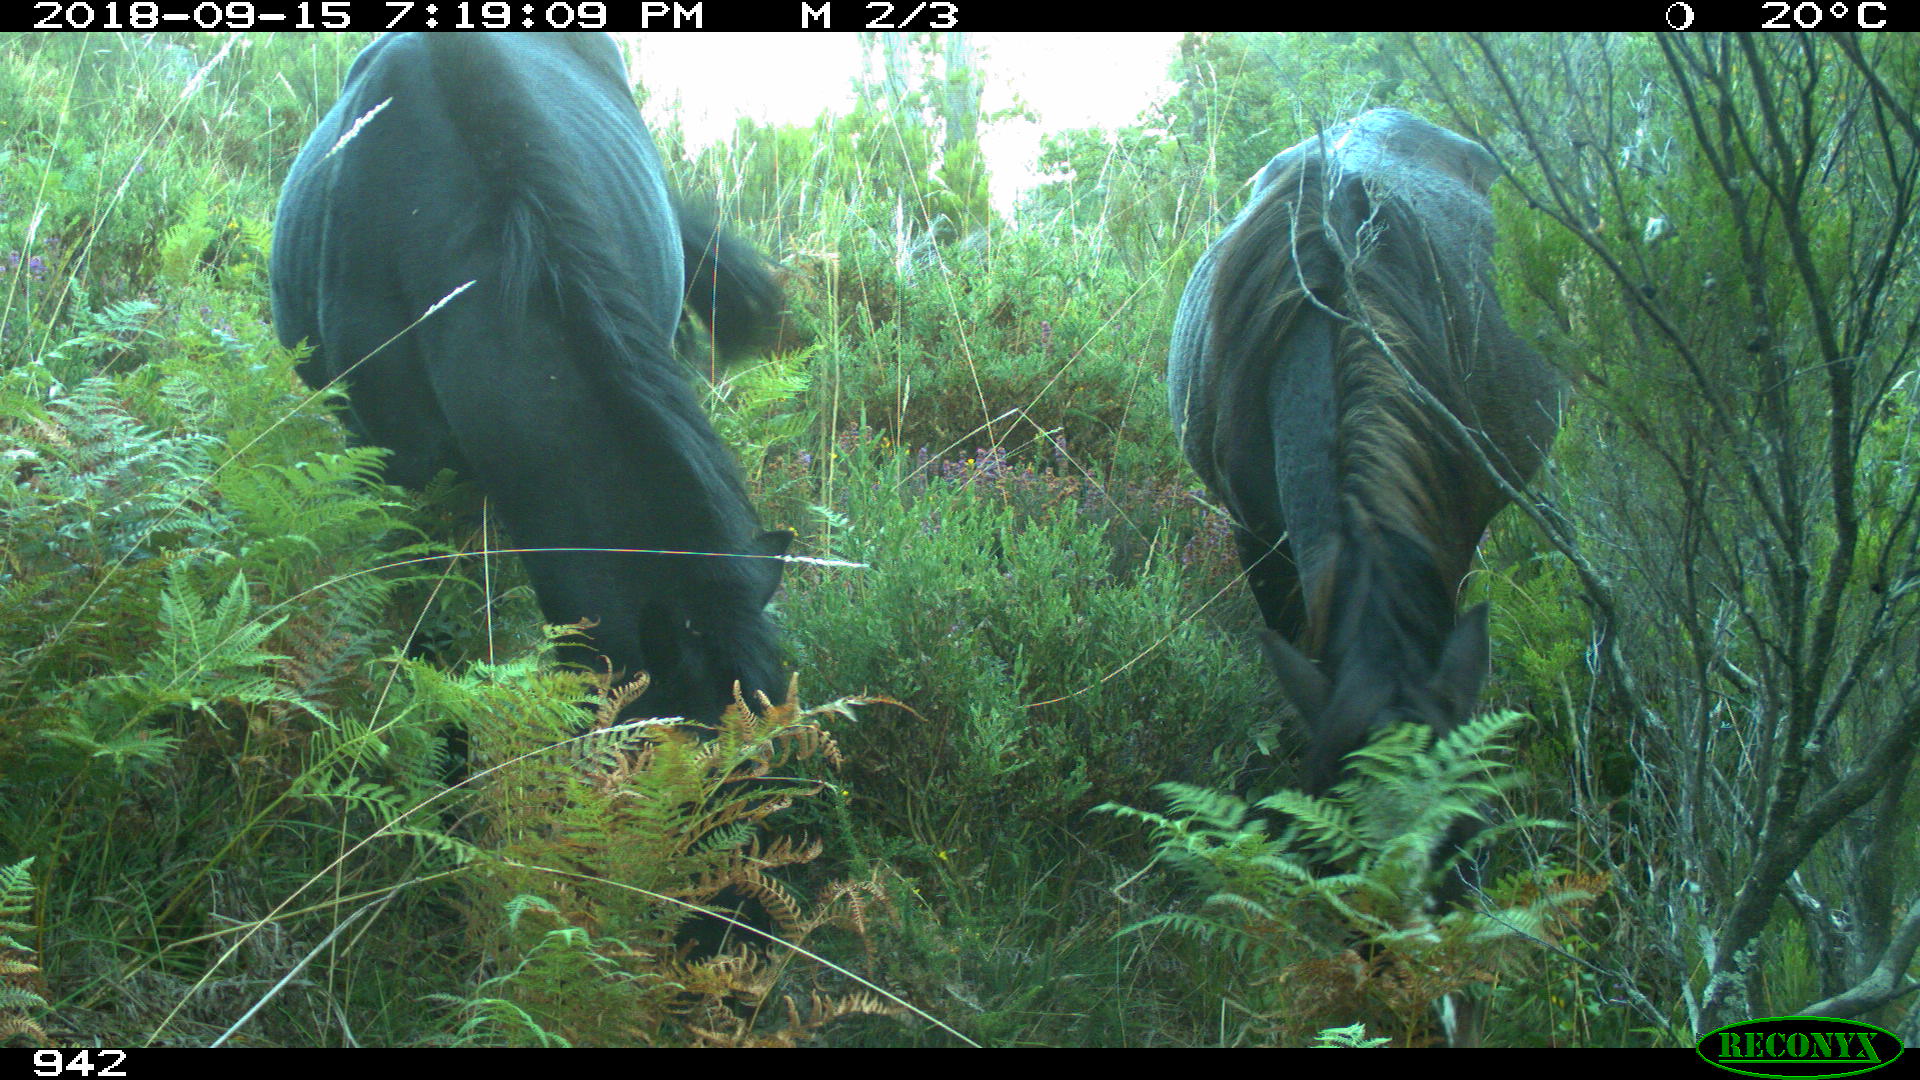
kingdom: Animalia
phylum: Chordata
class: Mammalia
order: Perissodactyla
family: Equidae
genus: Equus
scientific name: Equus caballus
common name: Horse
